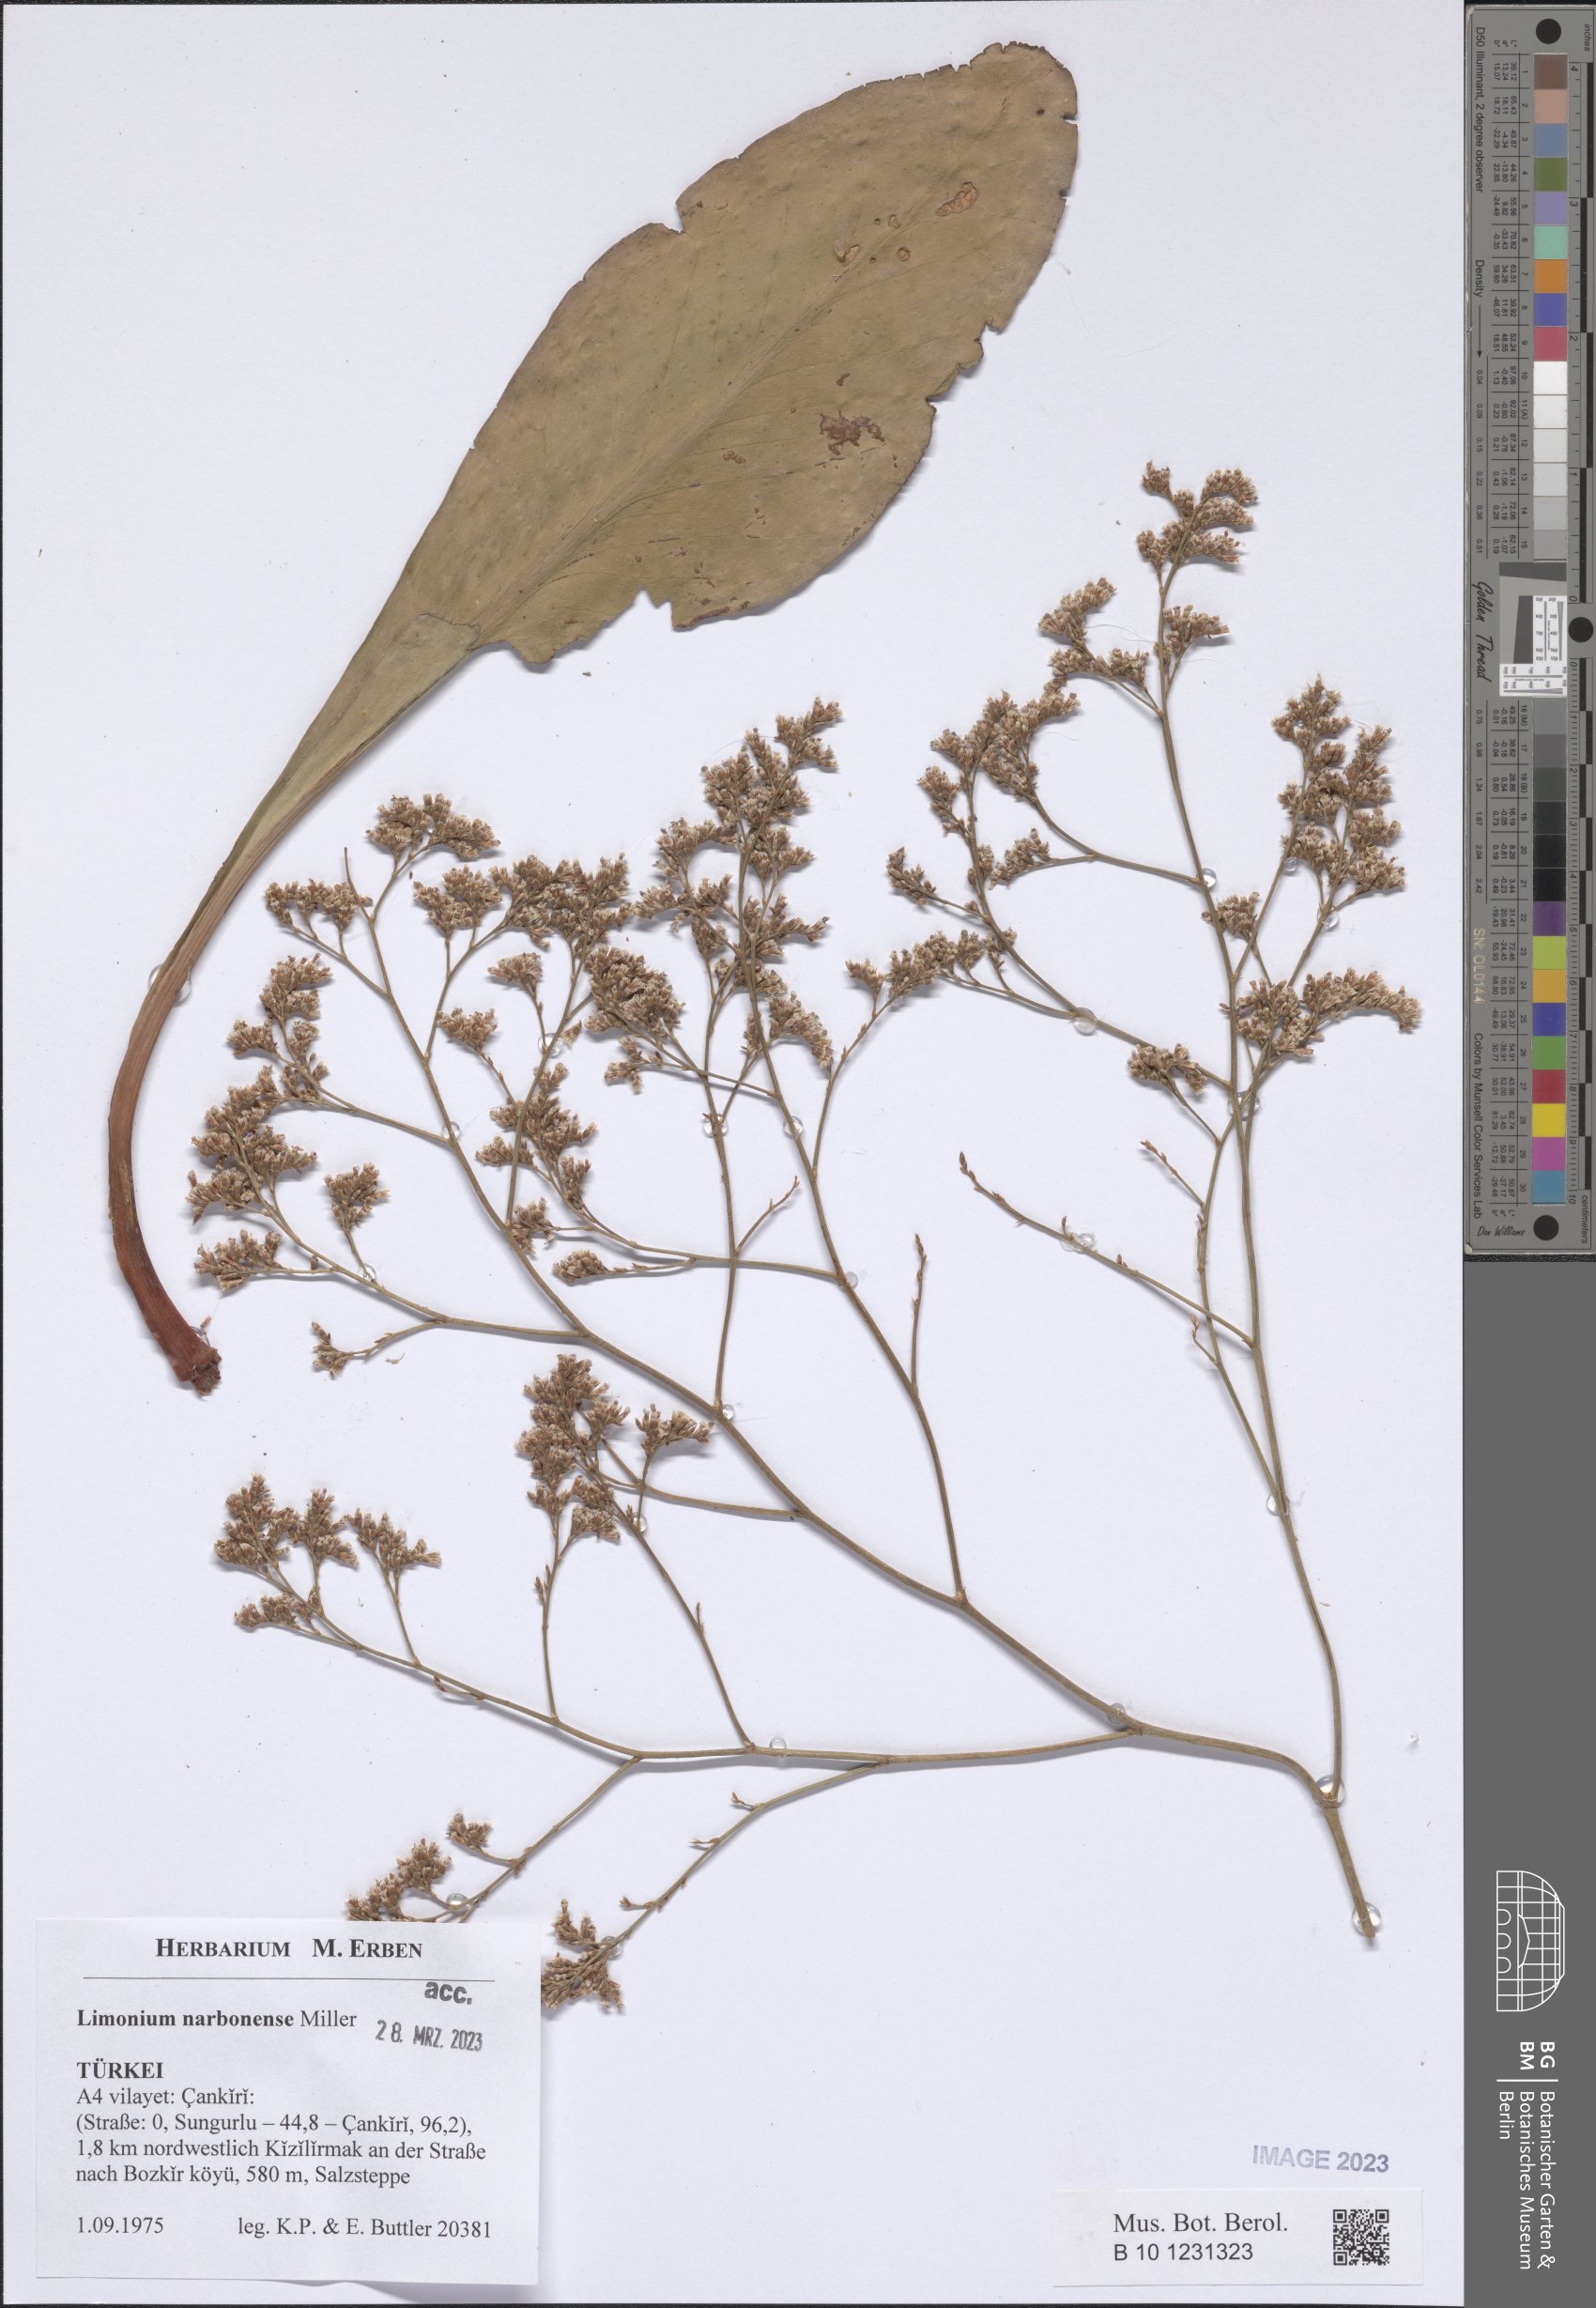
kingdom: Plantae
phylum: Tracheophyta
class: Magnoliopsida
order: Caryophyllales
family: Plumbaginaceae
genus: Limonium
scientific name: Limonium narbonense
